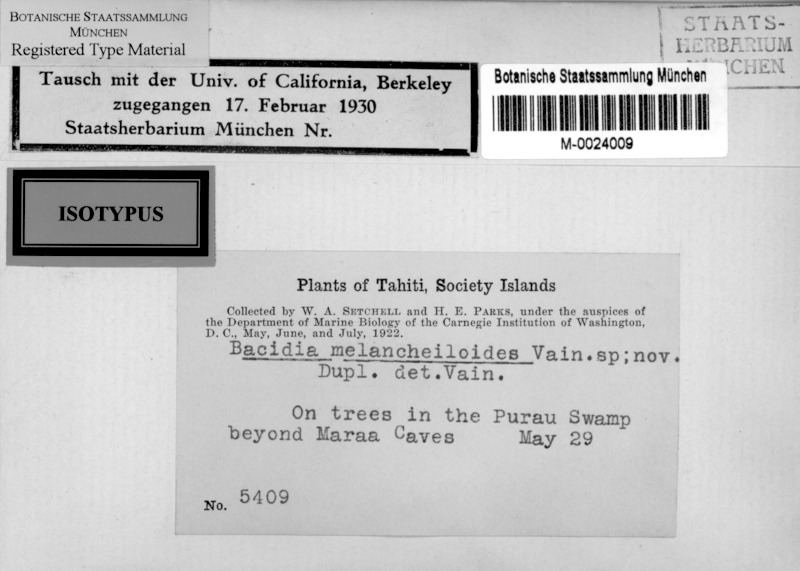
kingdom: Fungi
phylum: Ascomycota
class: Lecanoromycetes
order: Lecanorales
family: Ramalinaceae
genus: Bacidia
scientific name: Bacidia melanocheiloides
